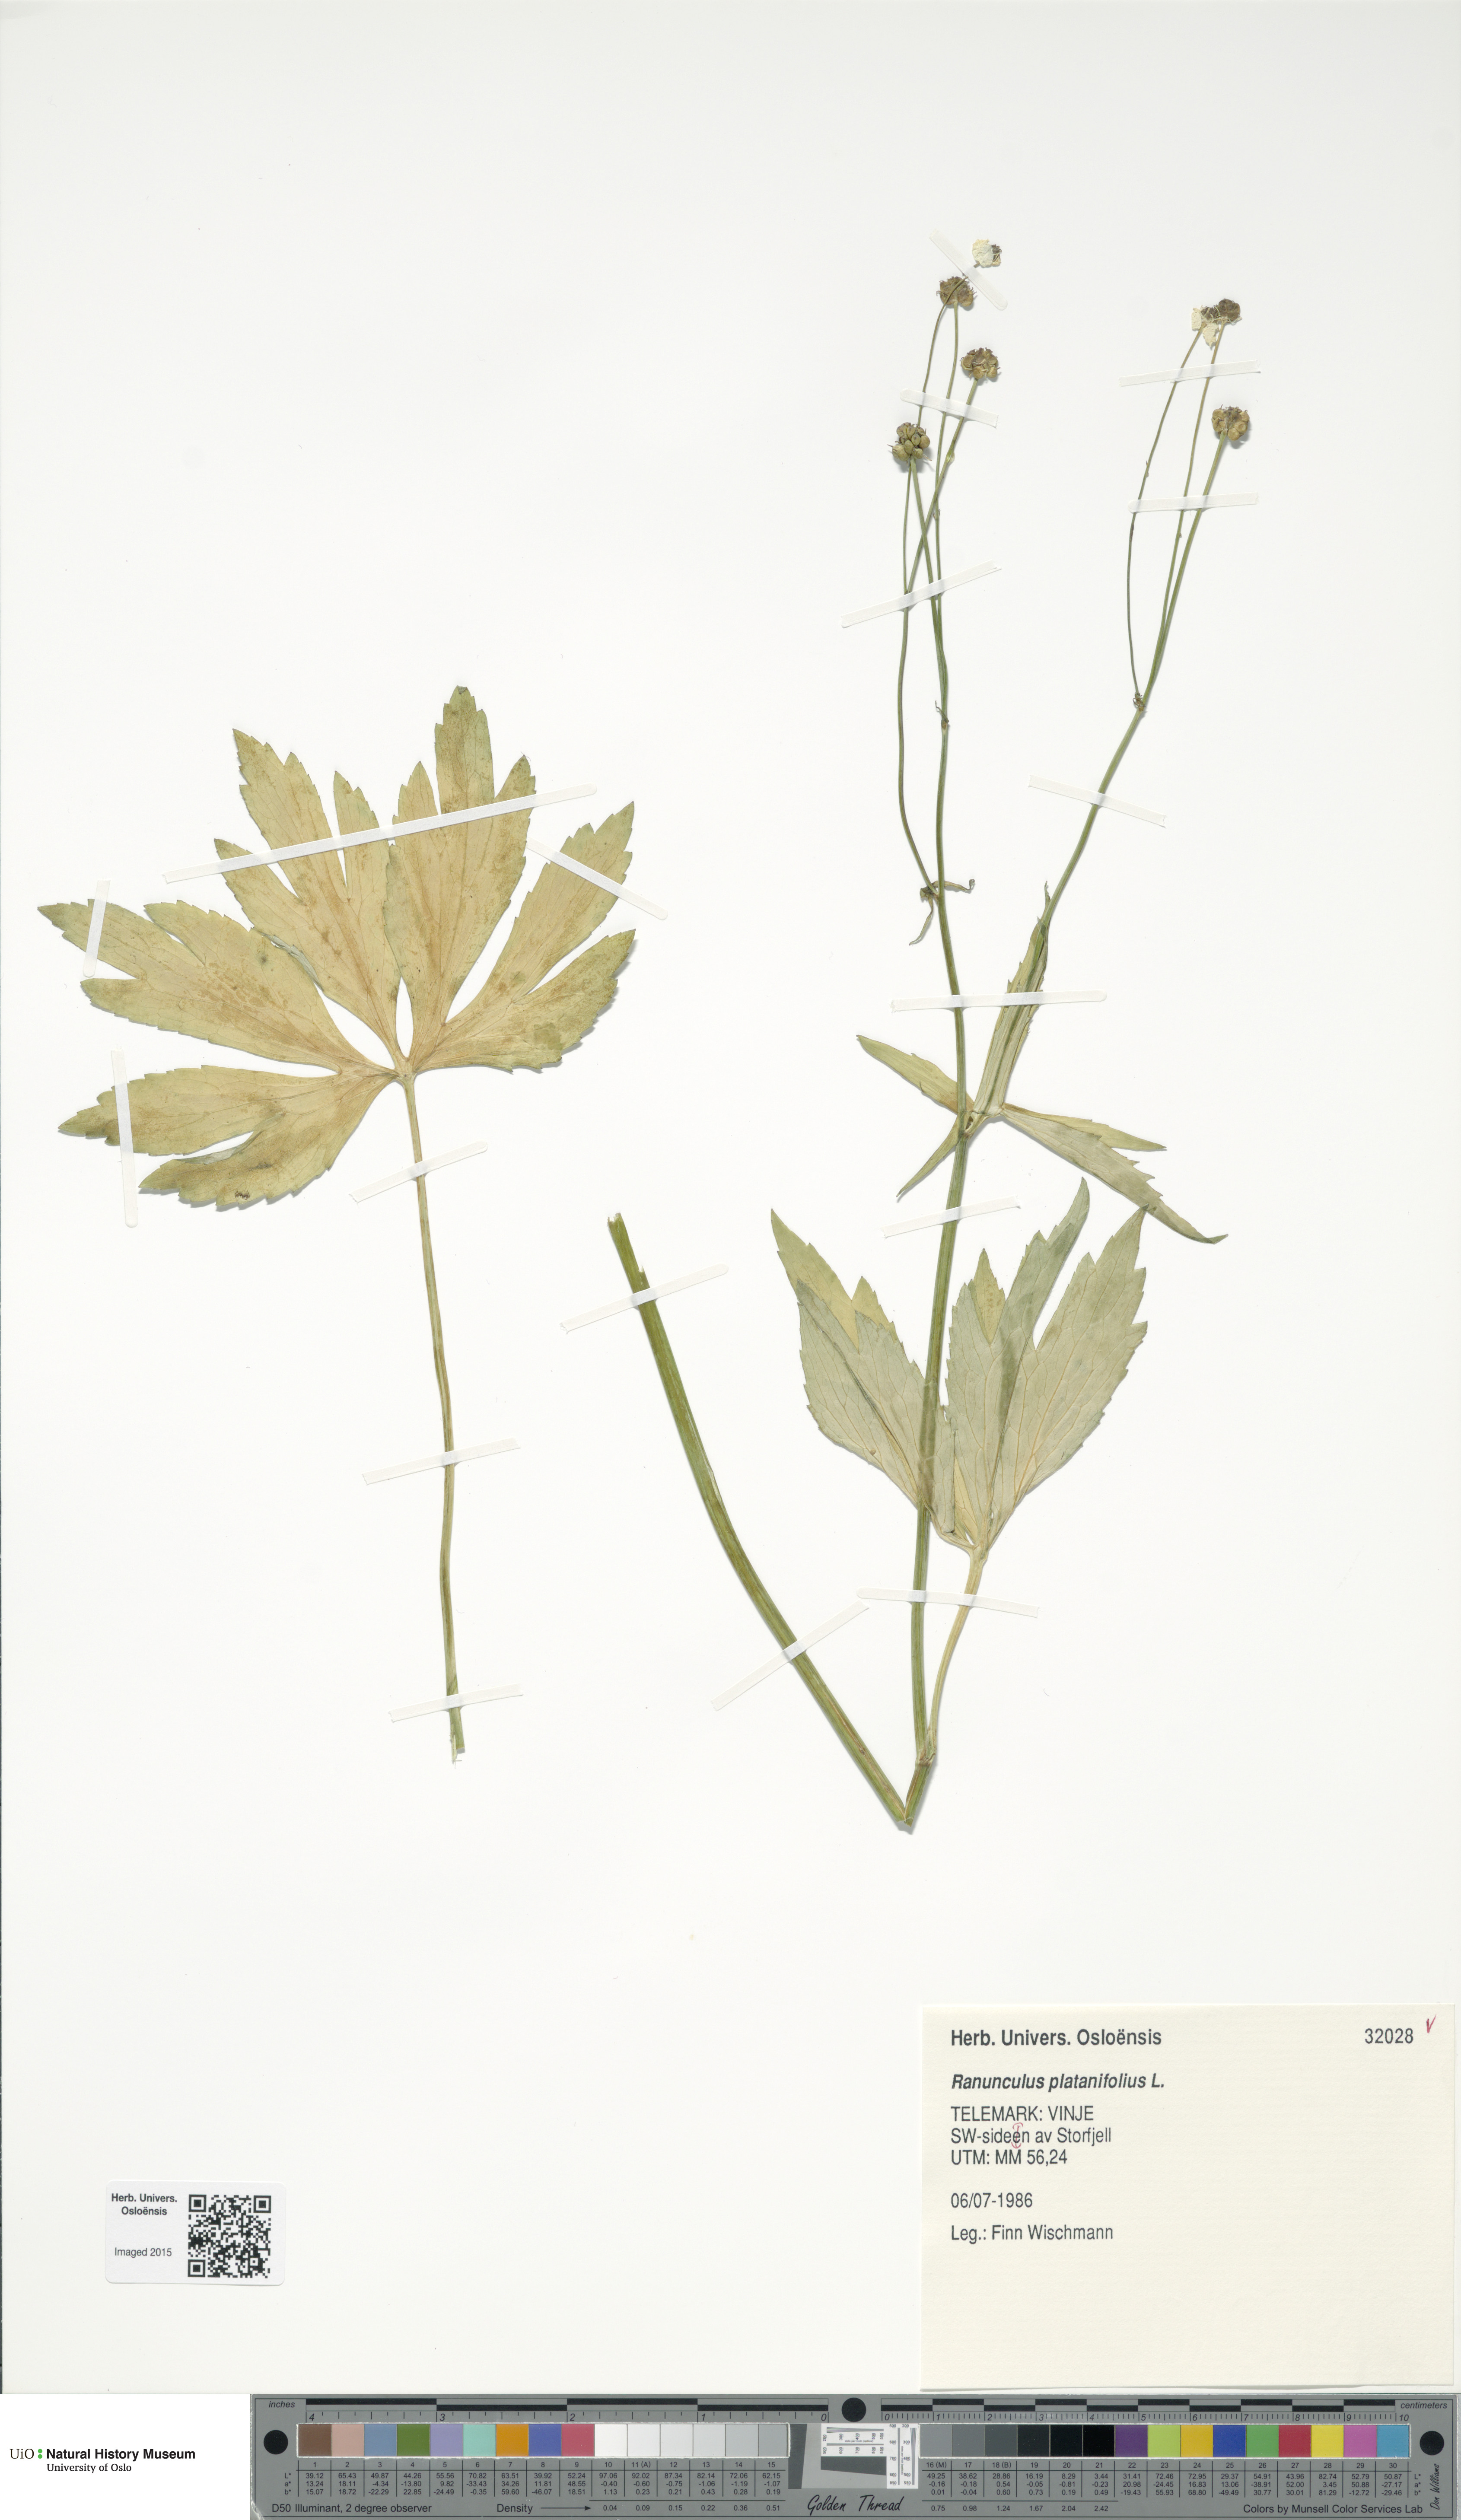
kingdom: Plantae
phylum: Tracheophyta
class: Magnoliopsida
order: Ranunculales
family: Ranunculaceae
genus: Ranunculus
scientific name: Ranunculus platanifolius
